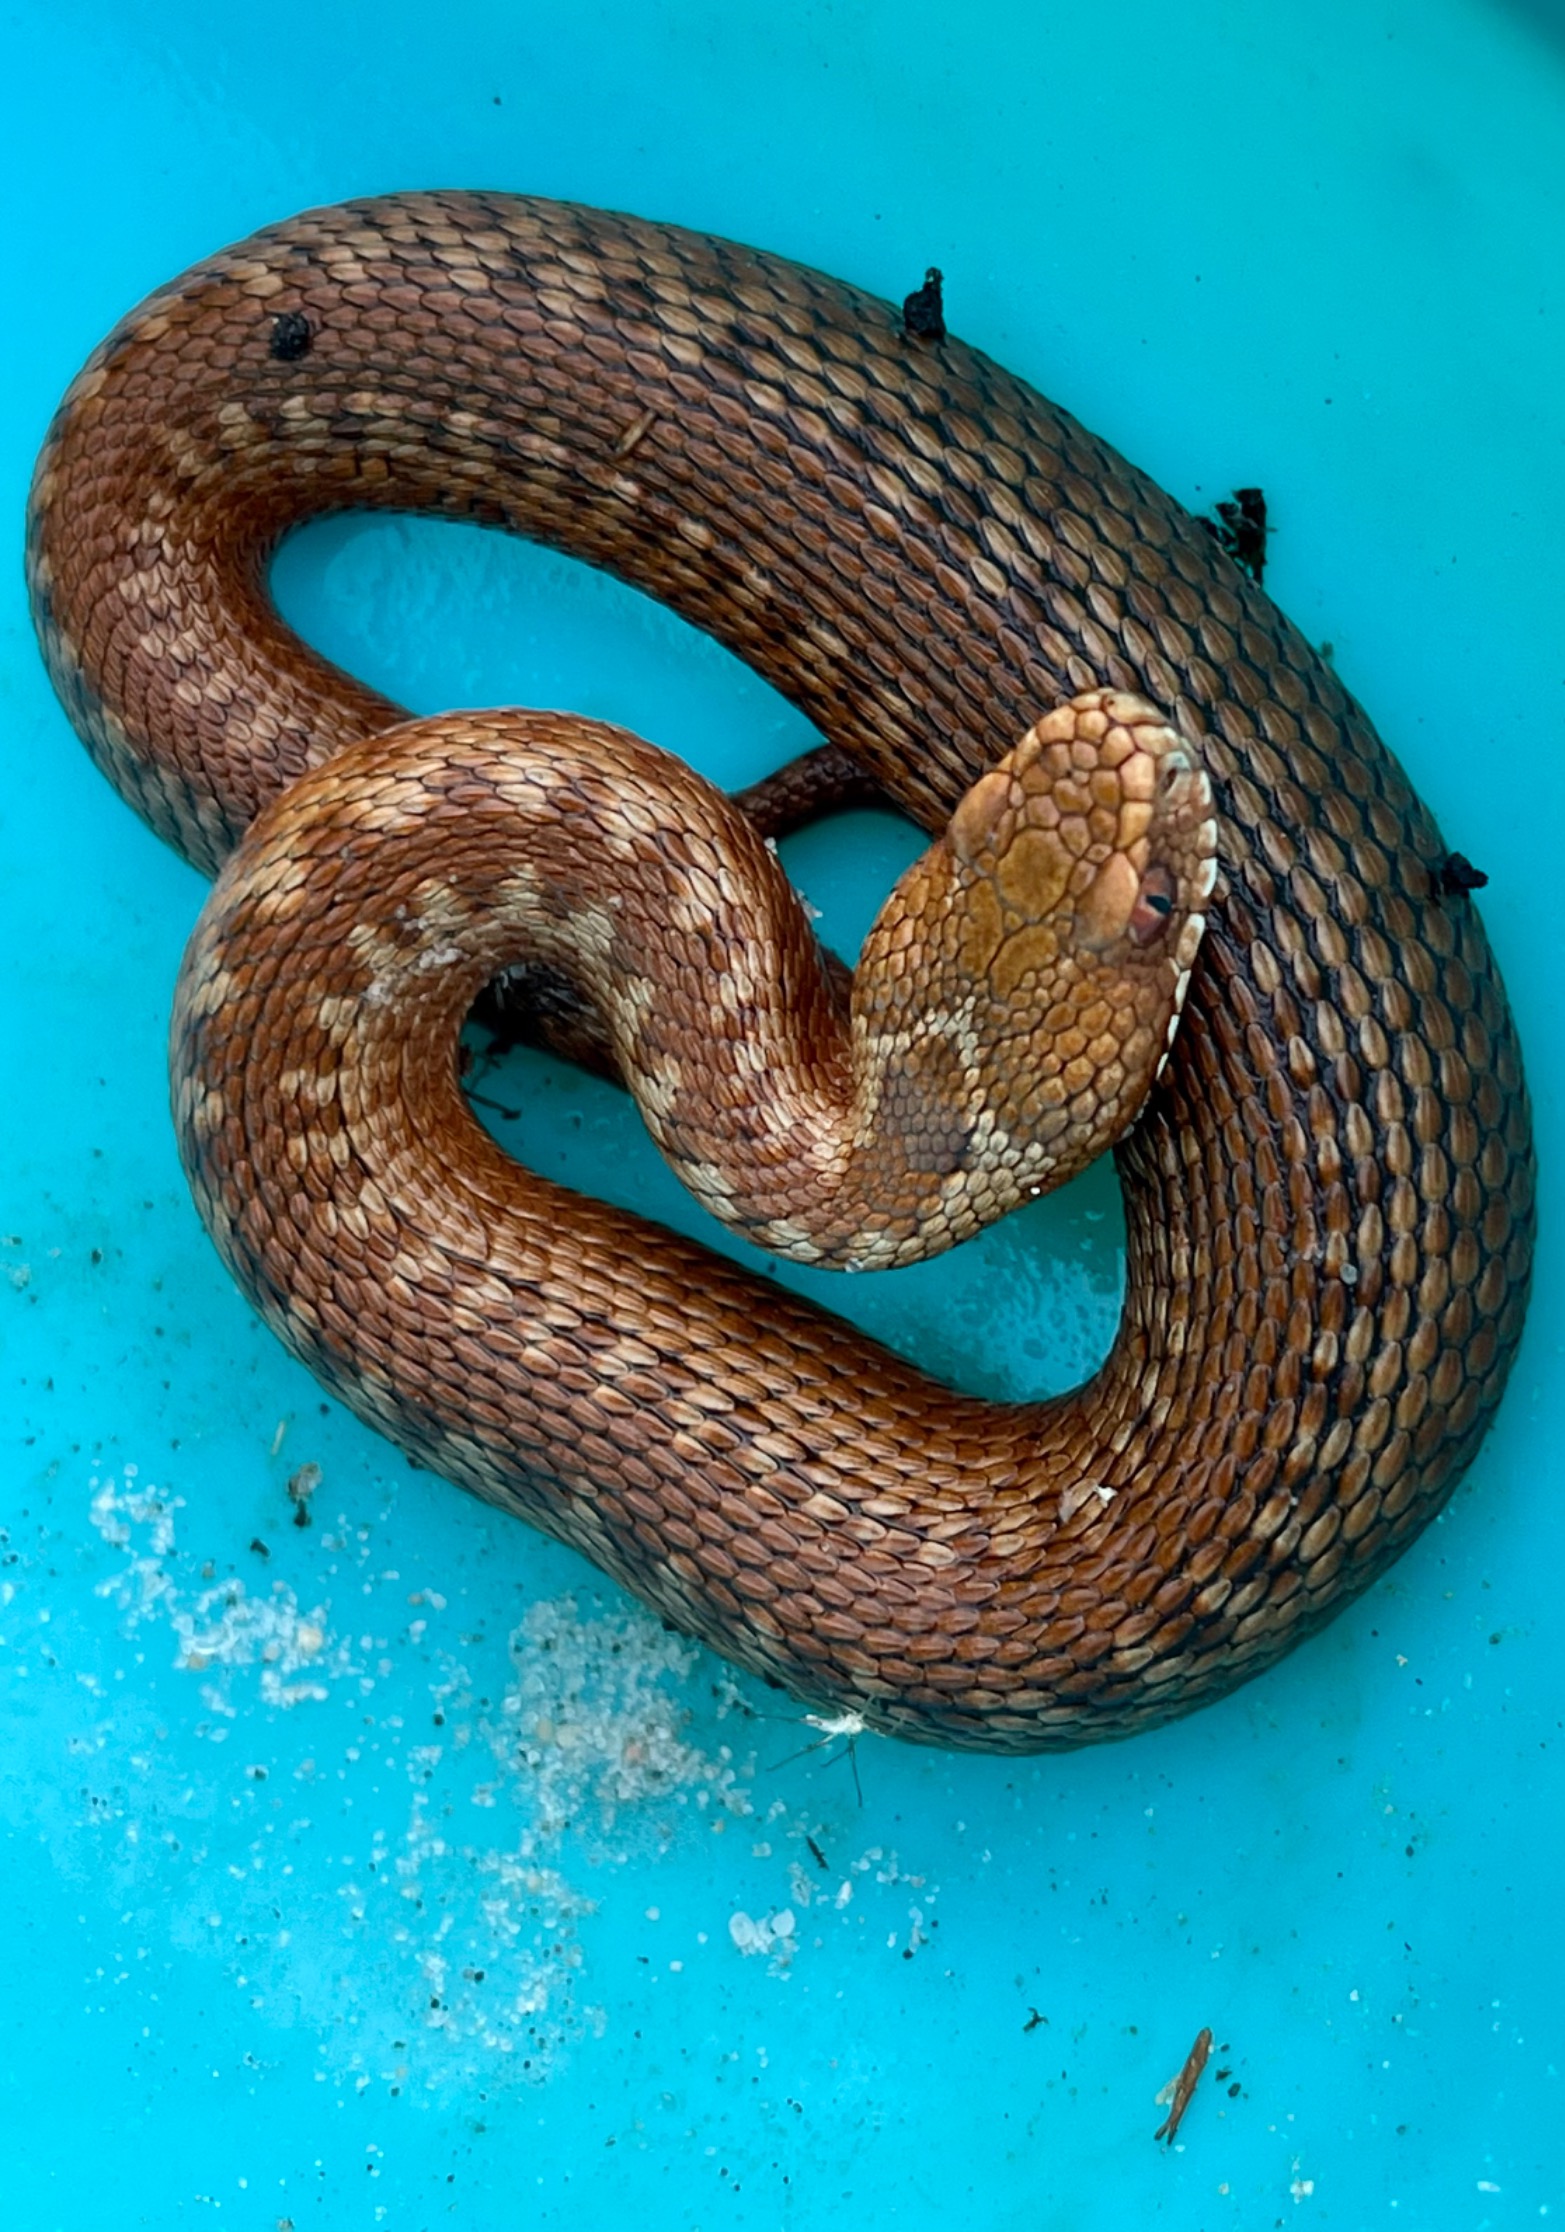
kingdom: Animalia
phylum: Chordata
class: Squamata
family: Viperidae
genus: Vipera
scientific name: Vipera berus
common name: Hugorm
